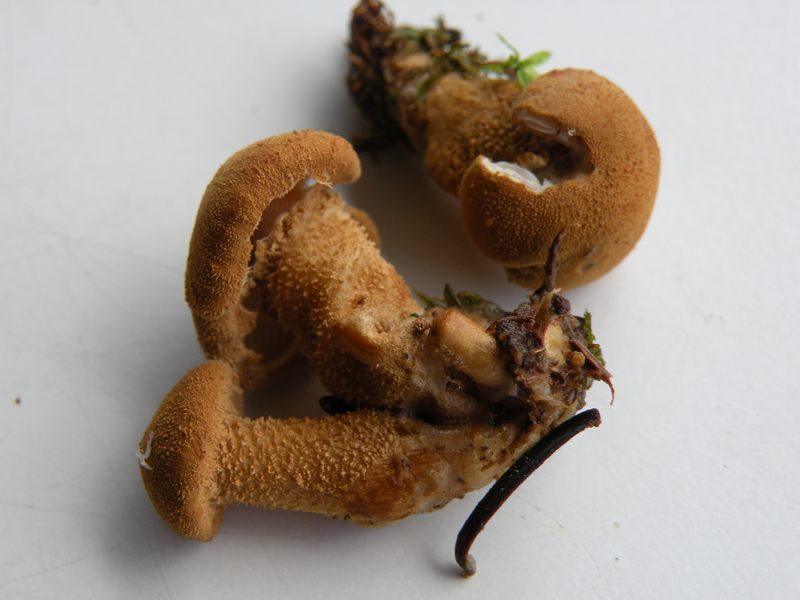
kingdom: Fungi
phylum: Basidiomycota
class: Agaricomycetes
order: Agaricales
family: Tricholomataceae
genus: Cystoderma
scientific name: Cystoderma amianthinum
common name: okkergul grynhat
